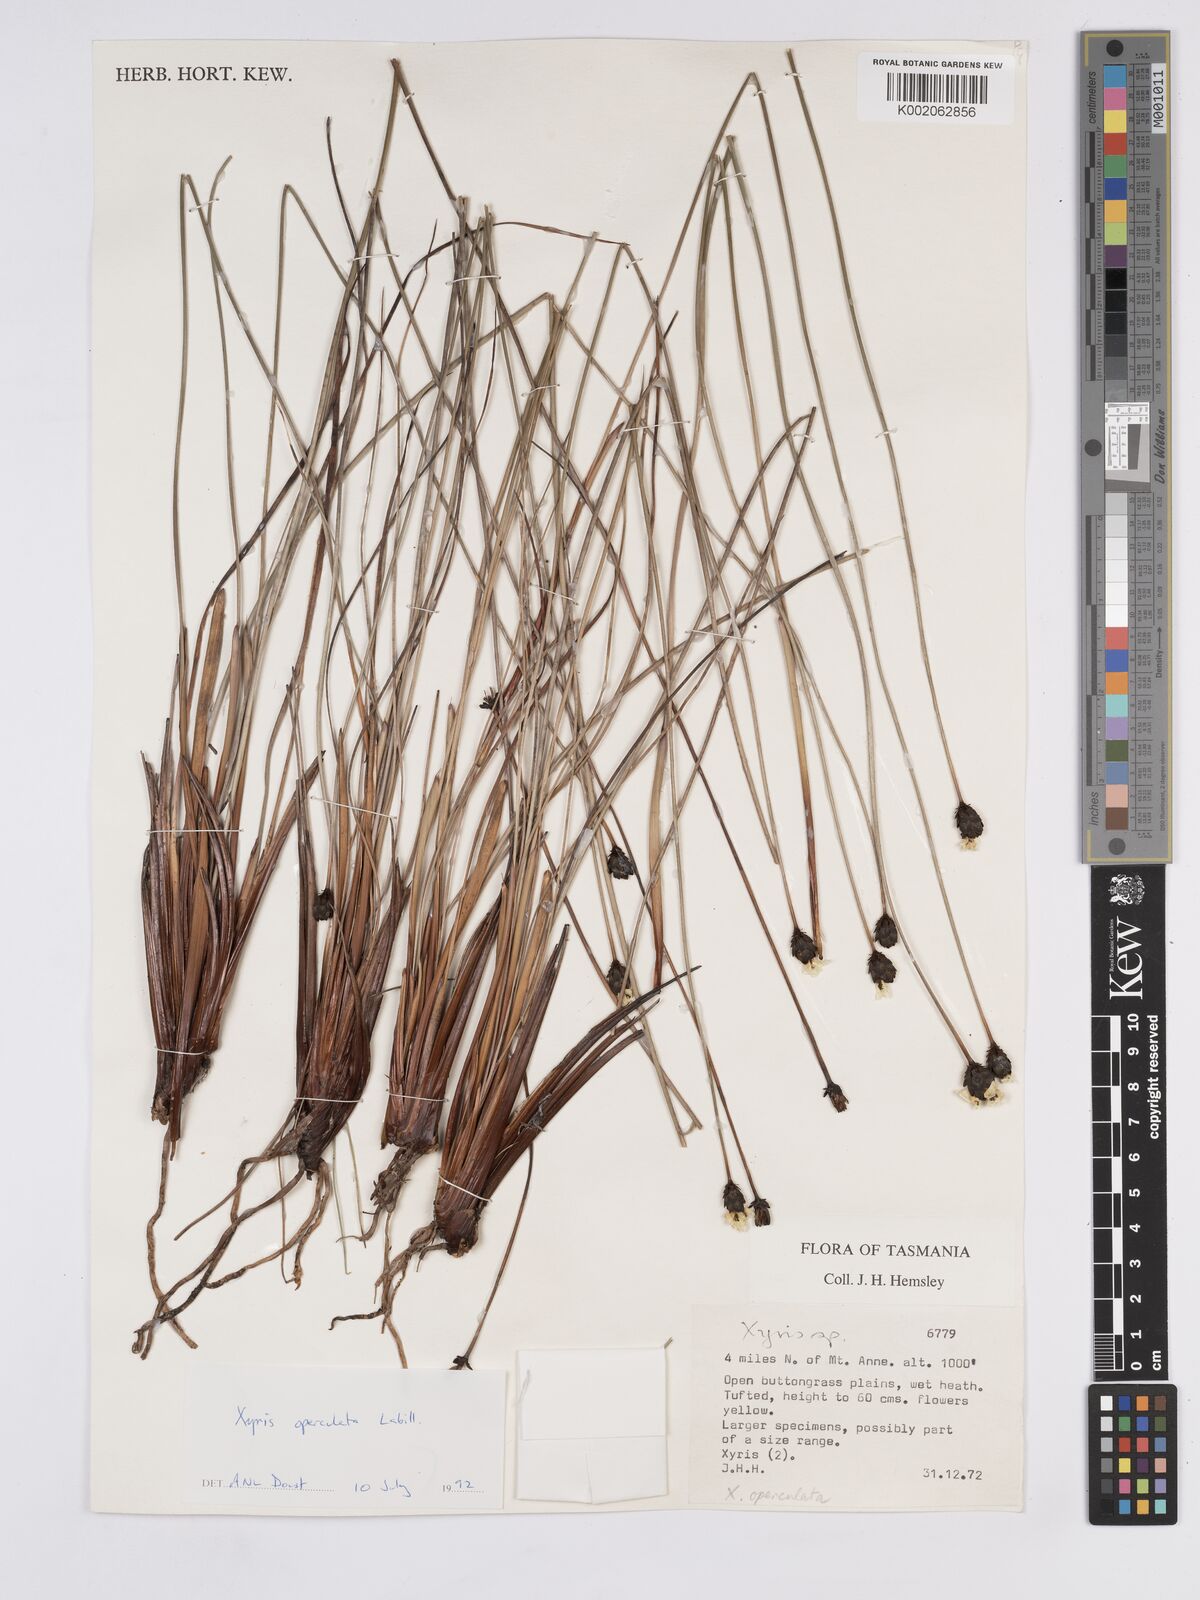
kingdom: Plantae
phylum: Tracheophyta
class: Liliopsida
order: Poales
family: Xyridaceae
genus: Xyris
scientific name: Xyris operculata
